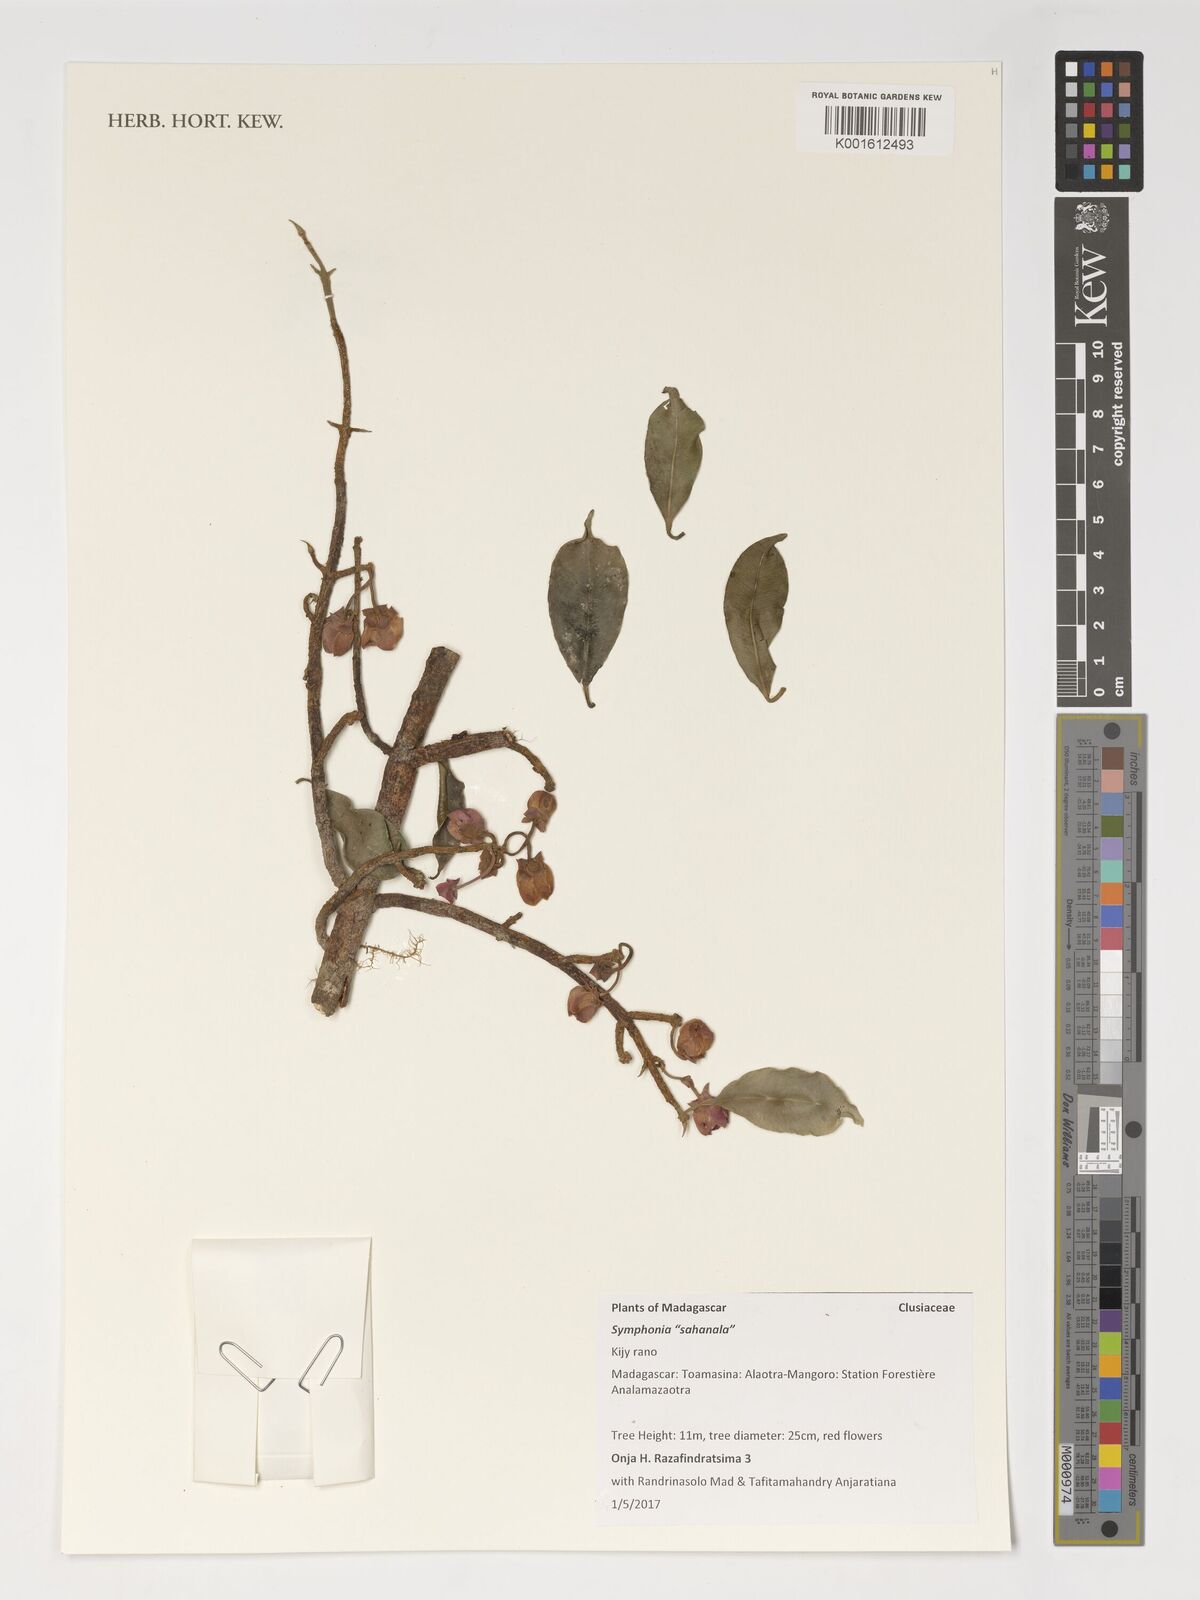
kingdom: Plantae
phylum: Tracheophyta
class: Magnoliopsida
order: Malpighiales
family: Clusiaceae
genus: Symphonia
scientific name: Symphonia
